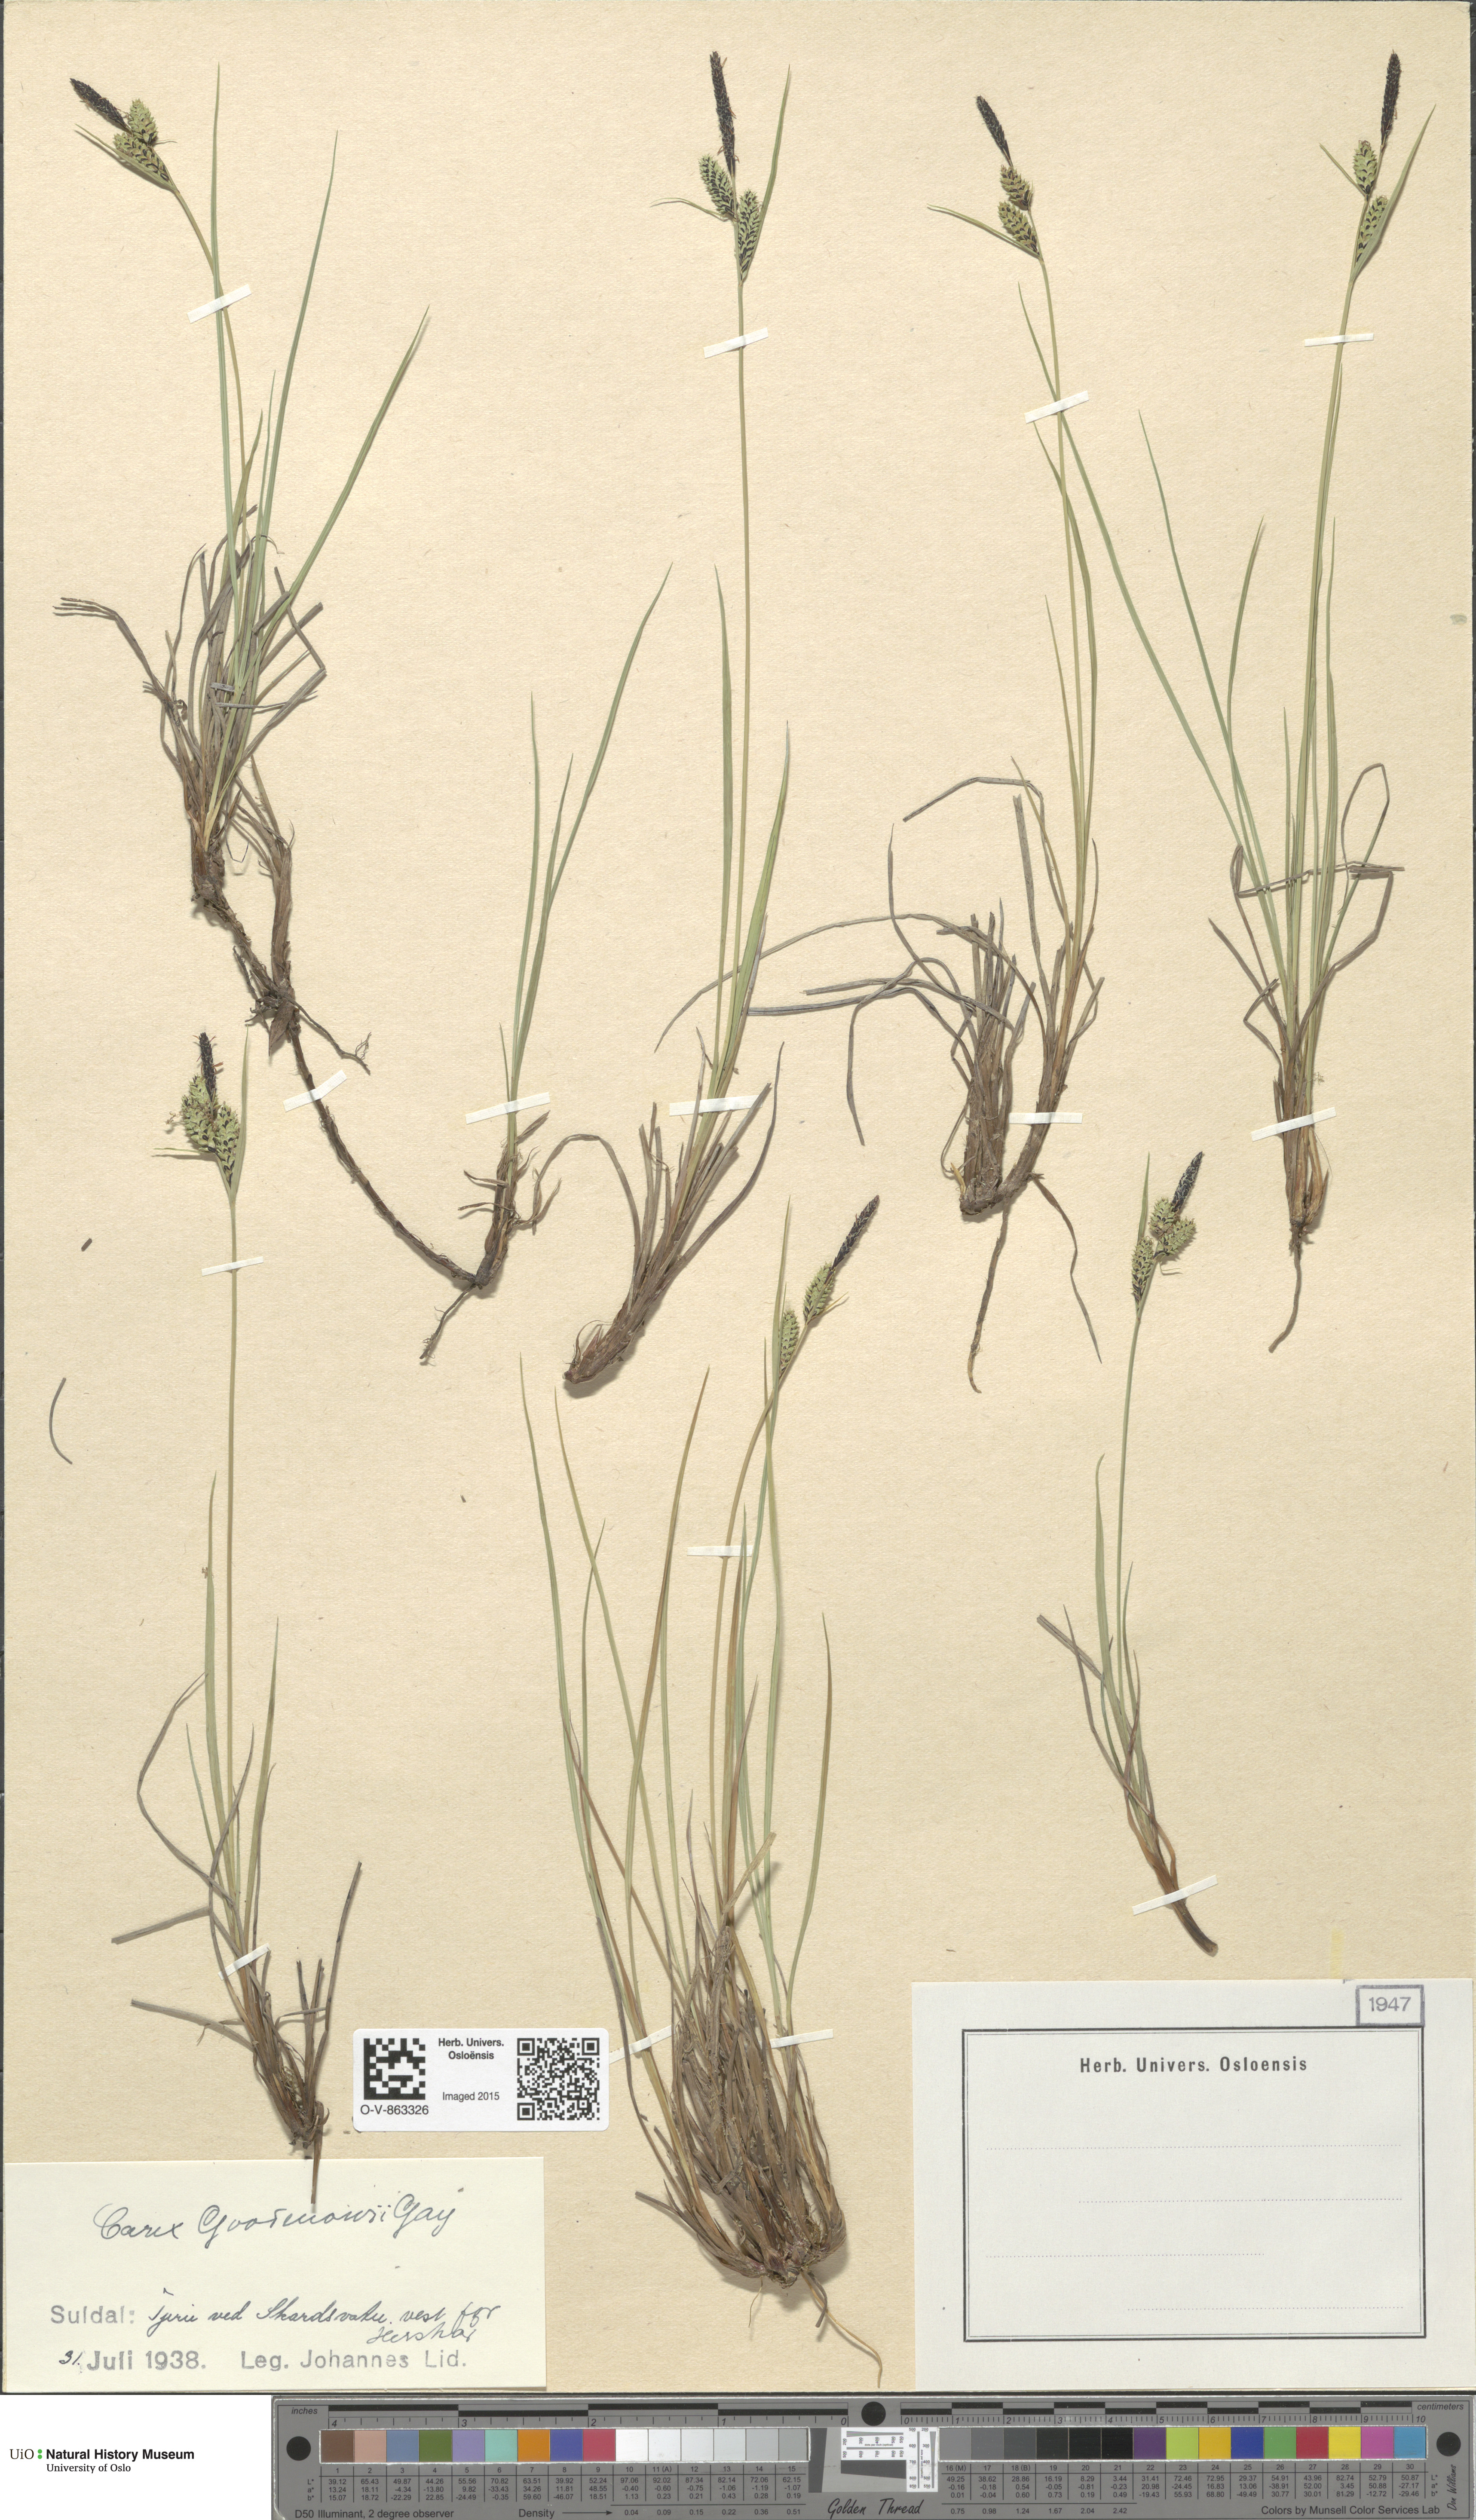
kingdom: Plantae
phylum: Tracheophyta
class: Liliopsida
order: Poales
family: Cyperaceae
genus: Carex
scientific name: Carex nigra
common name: Common sedge
